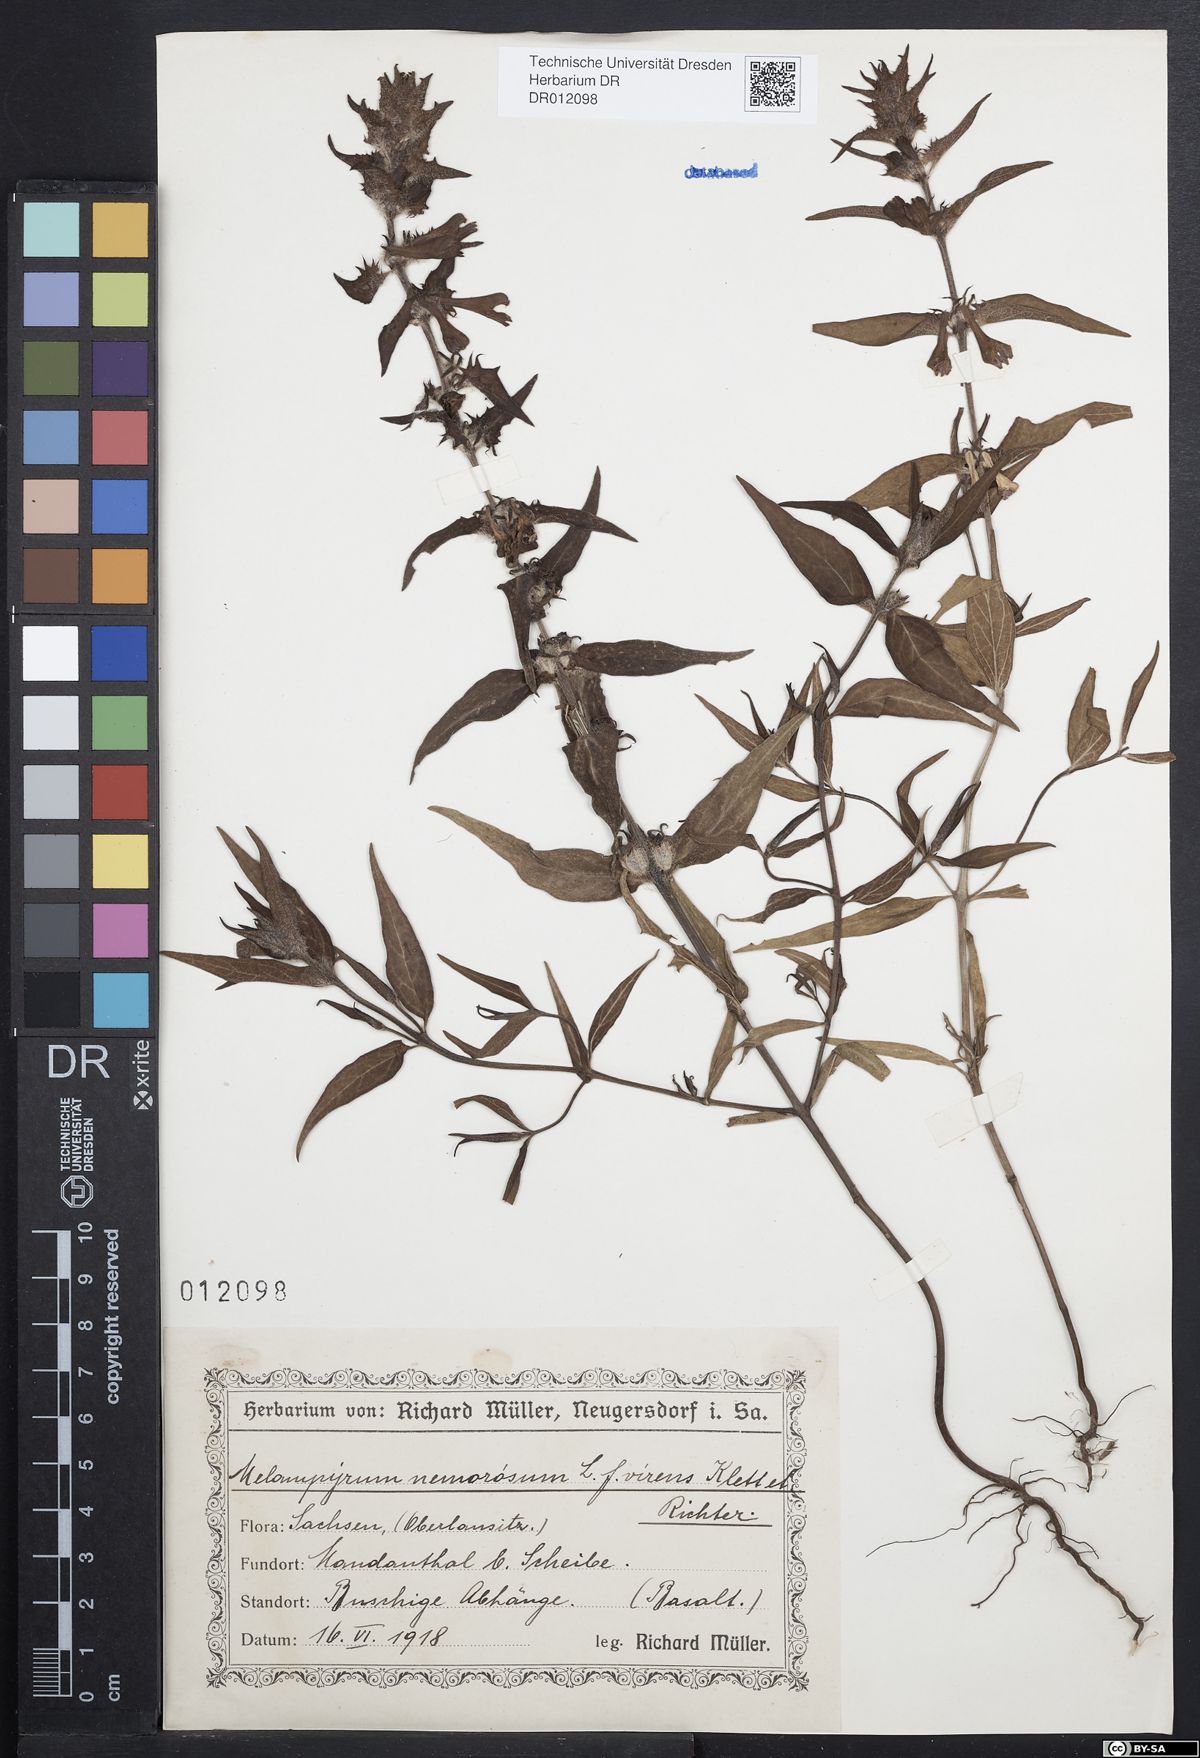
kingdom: Plantae
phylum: Tracheophyta
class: Magnoliopsida
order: Lamiales
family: Orobanchaceae
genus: Melampyrum
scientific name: Melampyrum nemorosum
